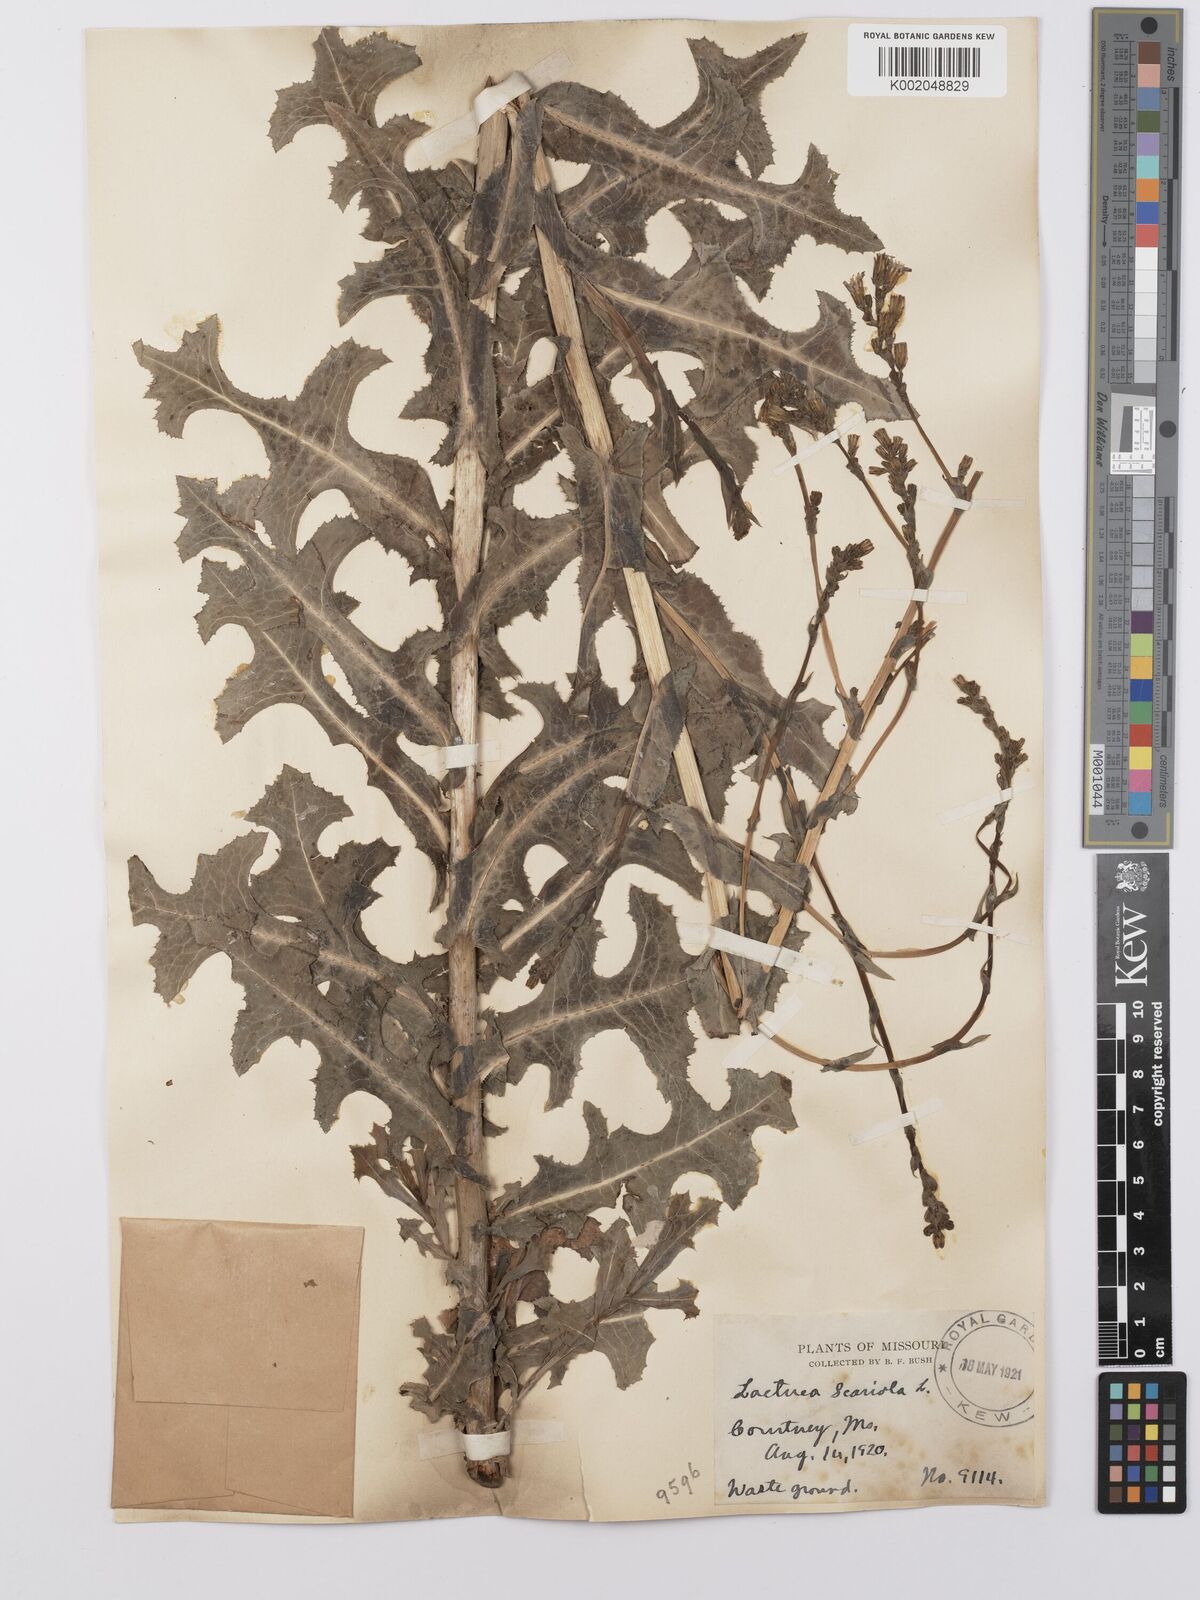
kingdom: Plantae
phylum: Tracheophyta
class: Magnoliopsida
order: Asterales
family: Asteraceae
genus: Lactuca
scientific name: Lactuca serriola
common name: Prickly lettuce
